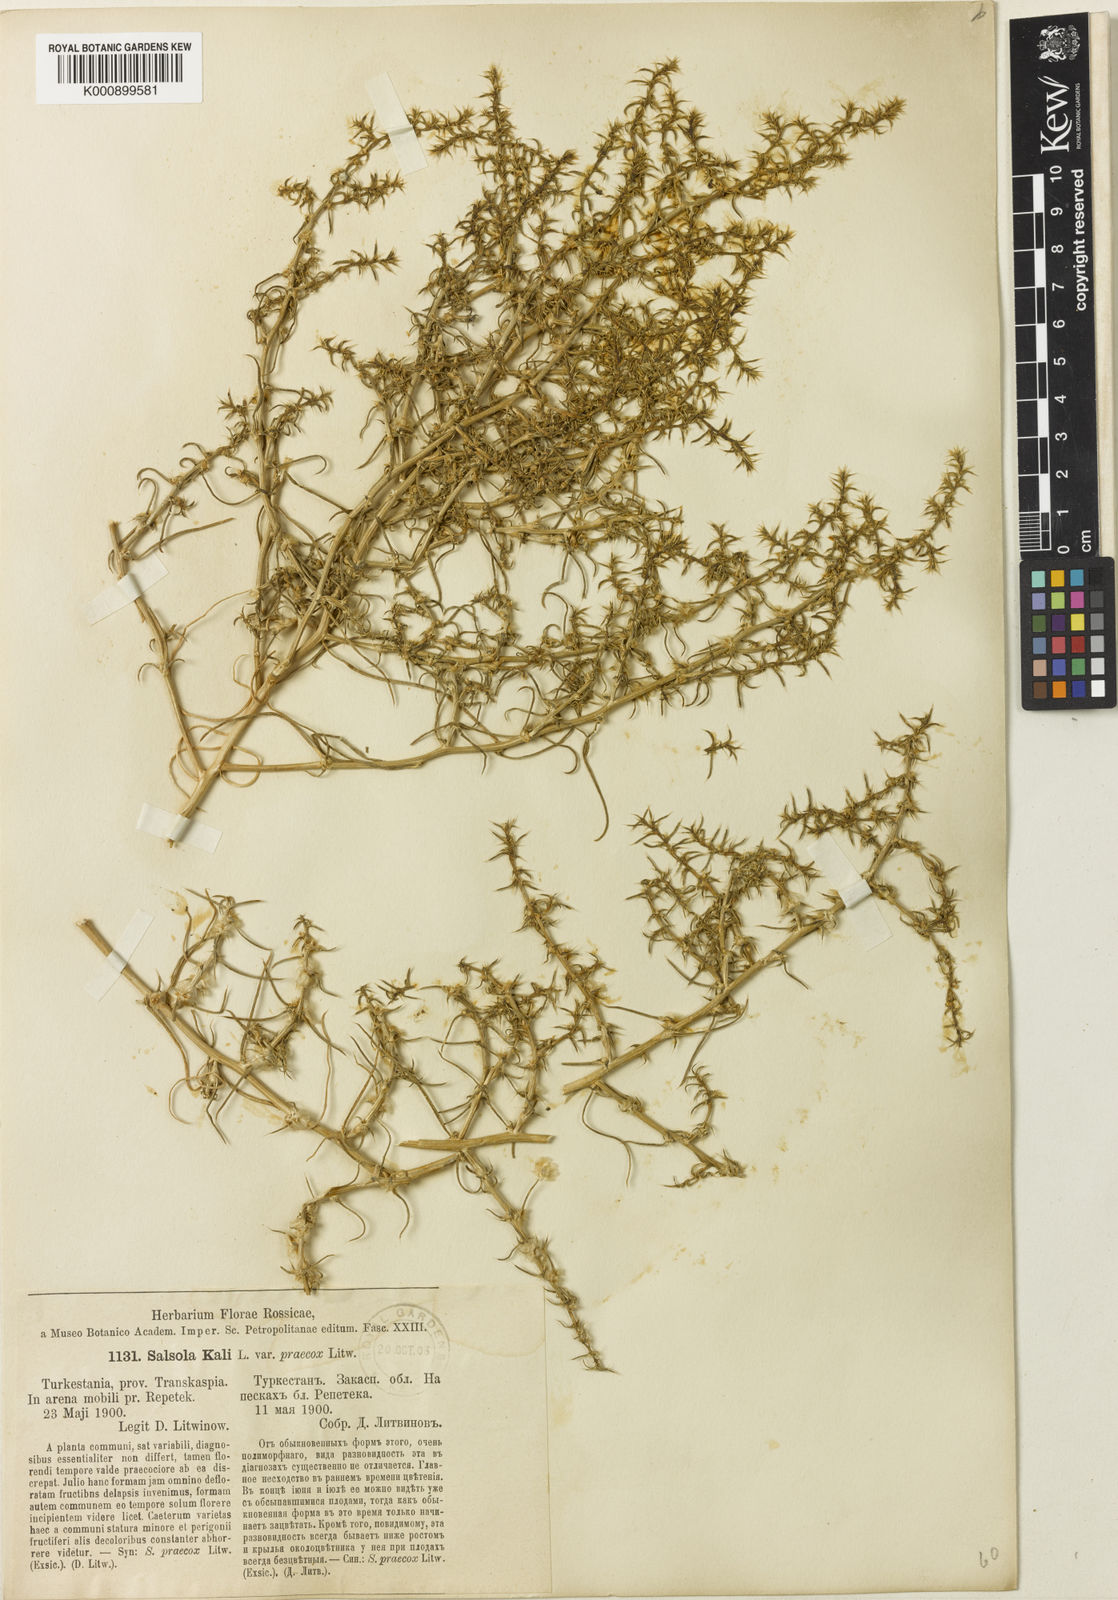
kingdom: Plantae
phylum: Tracheophyta
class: Magnoliopsida
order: Caryophyllales
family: Amaranthaceae
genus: Salsola
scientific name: Salsola praecox
